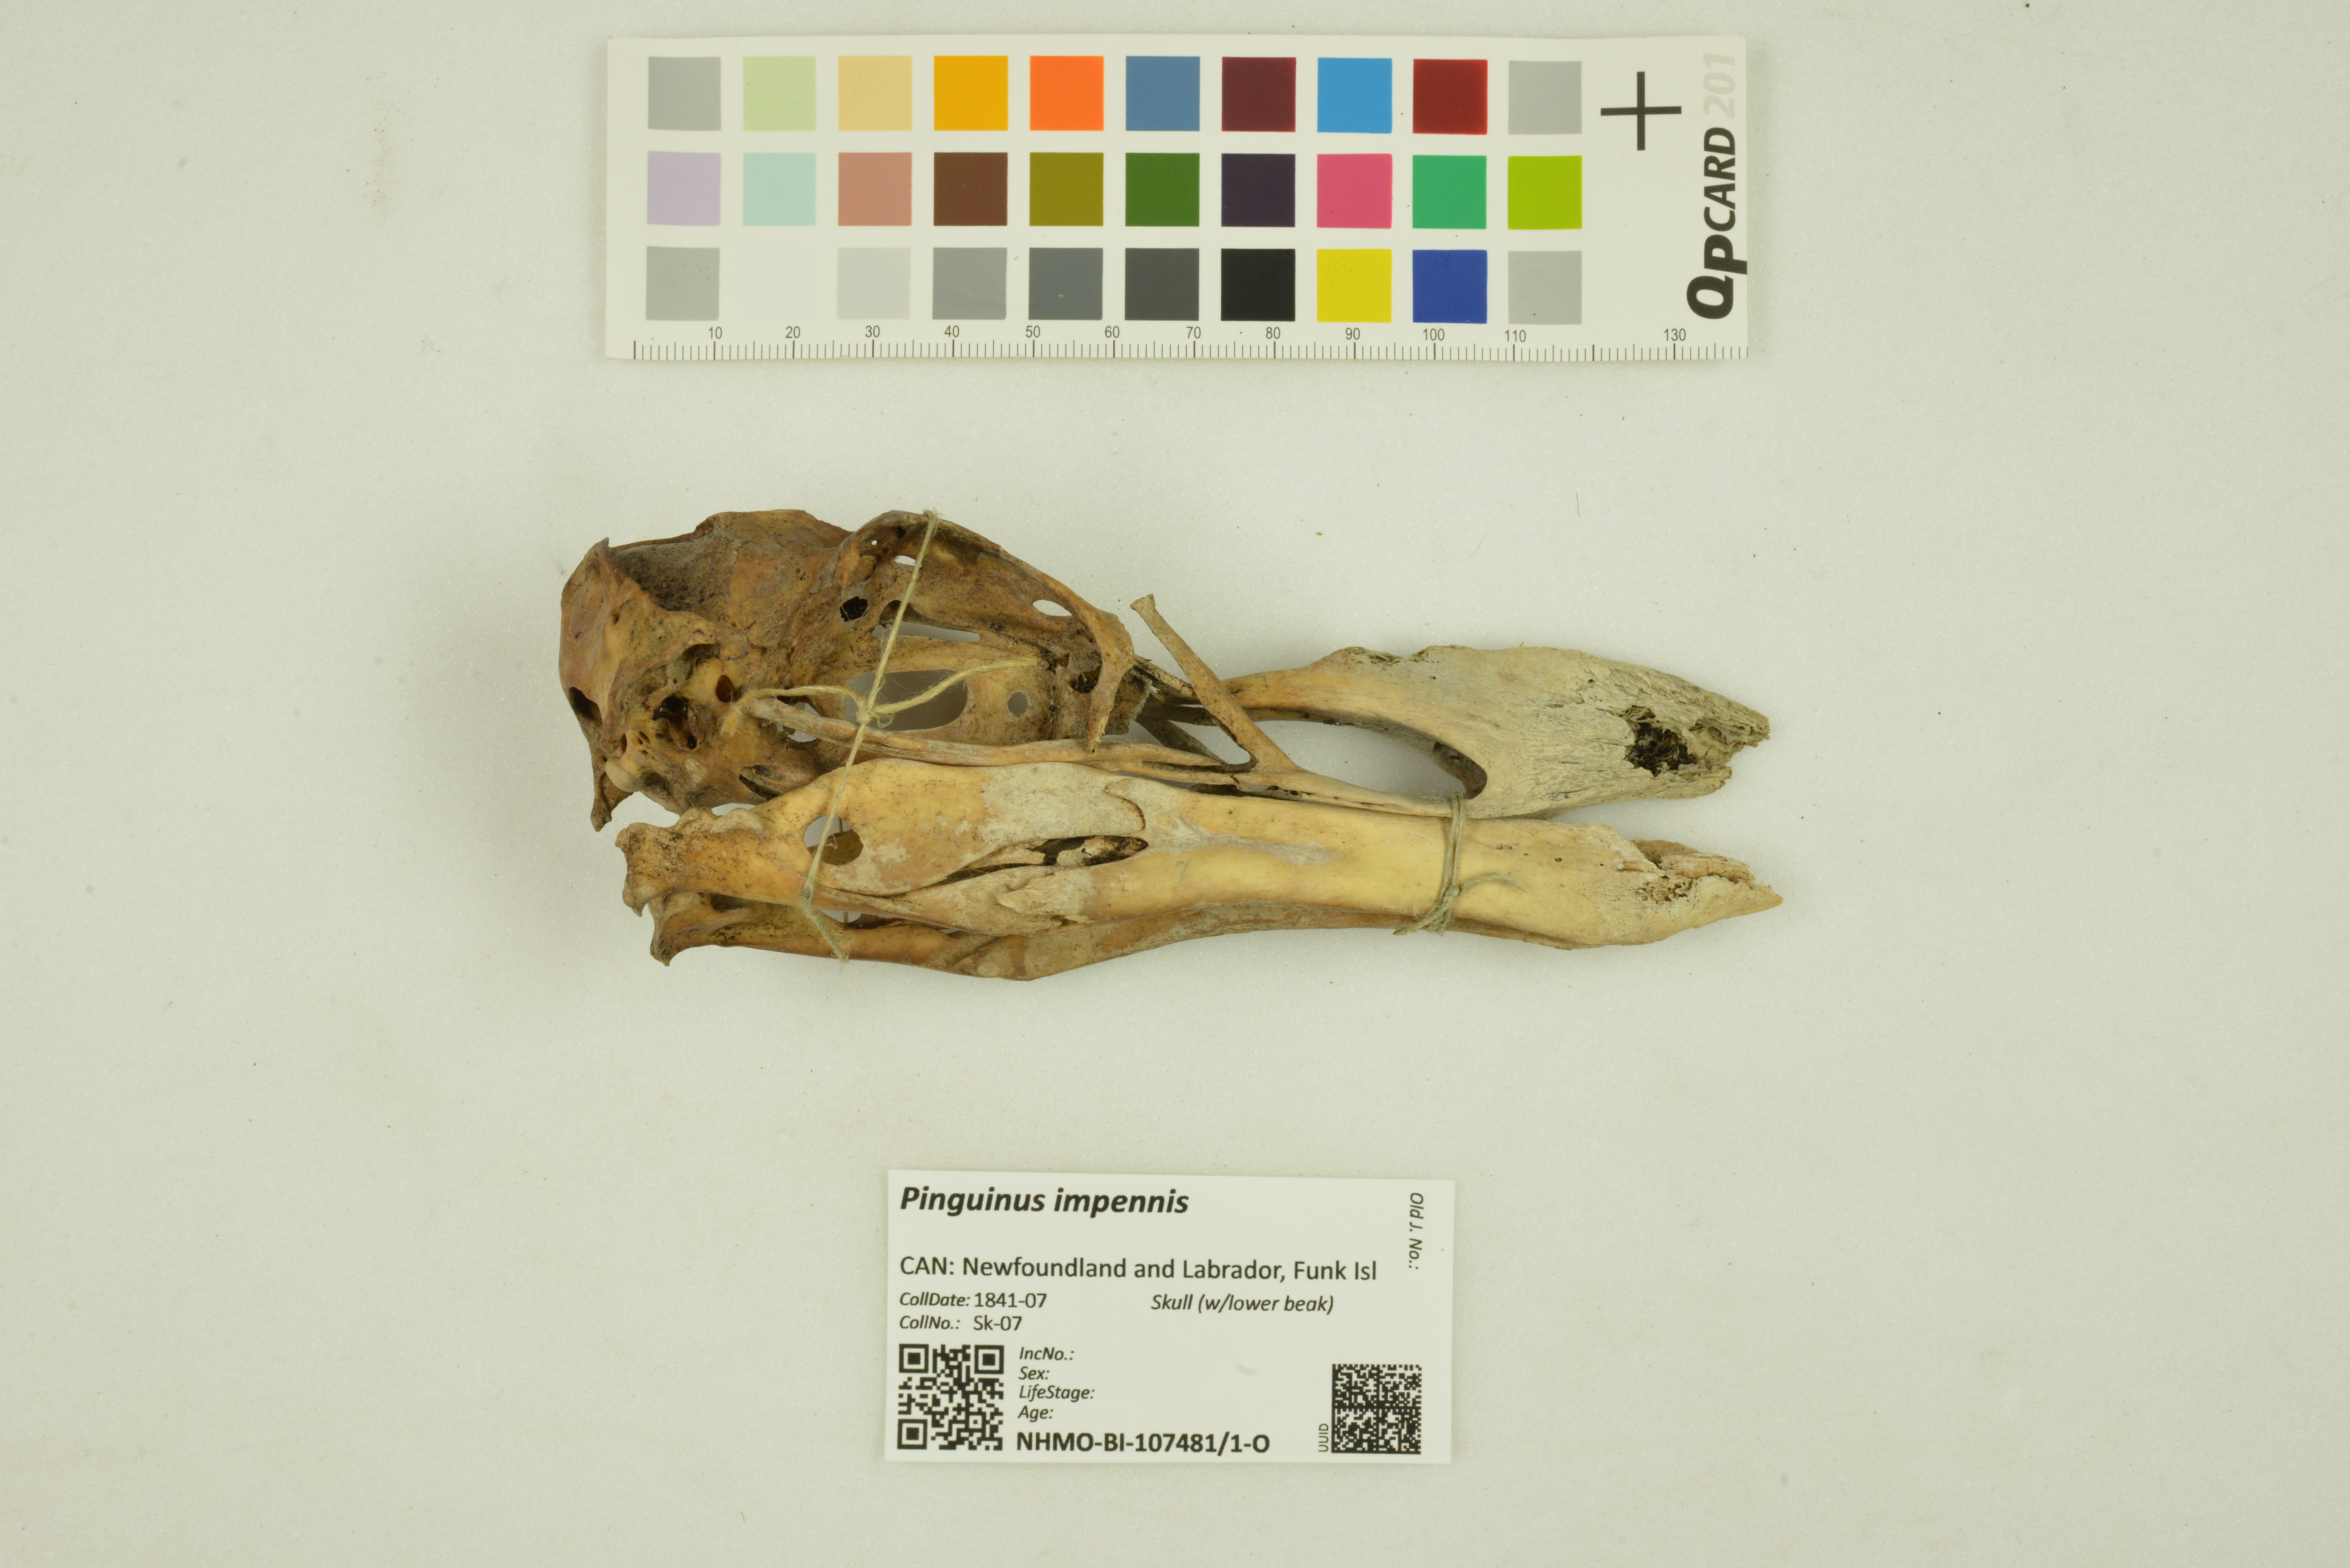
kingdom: Animalia
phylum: Chordata
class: Aves
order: Charadriiformes
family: Alcidae
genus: Pinguinus
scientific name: Pinguinus impennis
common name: Great auk
